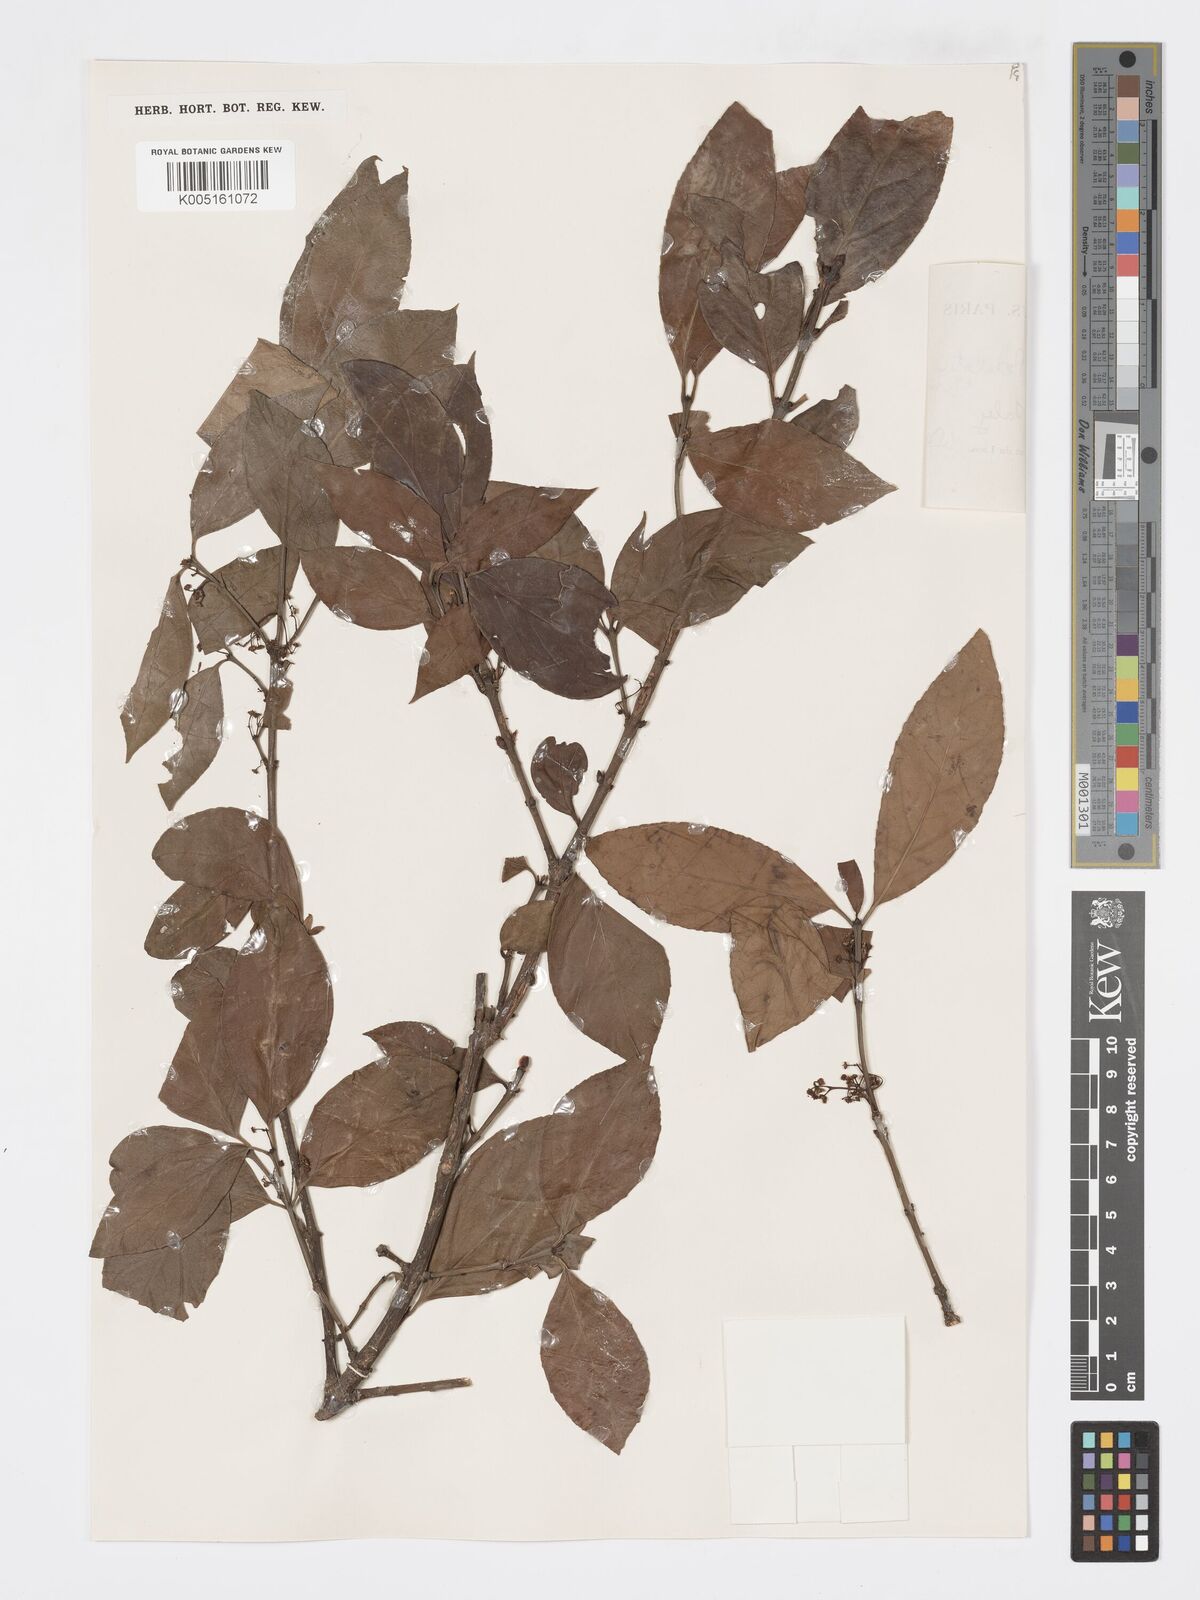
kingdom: Plantae
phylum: Tracheophyta
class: Magnoliopsida
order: Celastrales
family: Celastraceae
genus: Euonymus
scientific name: Euonymus bockii
